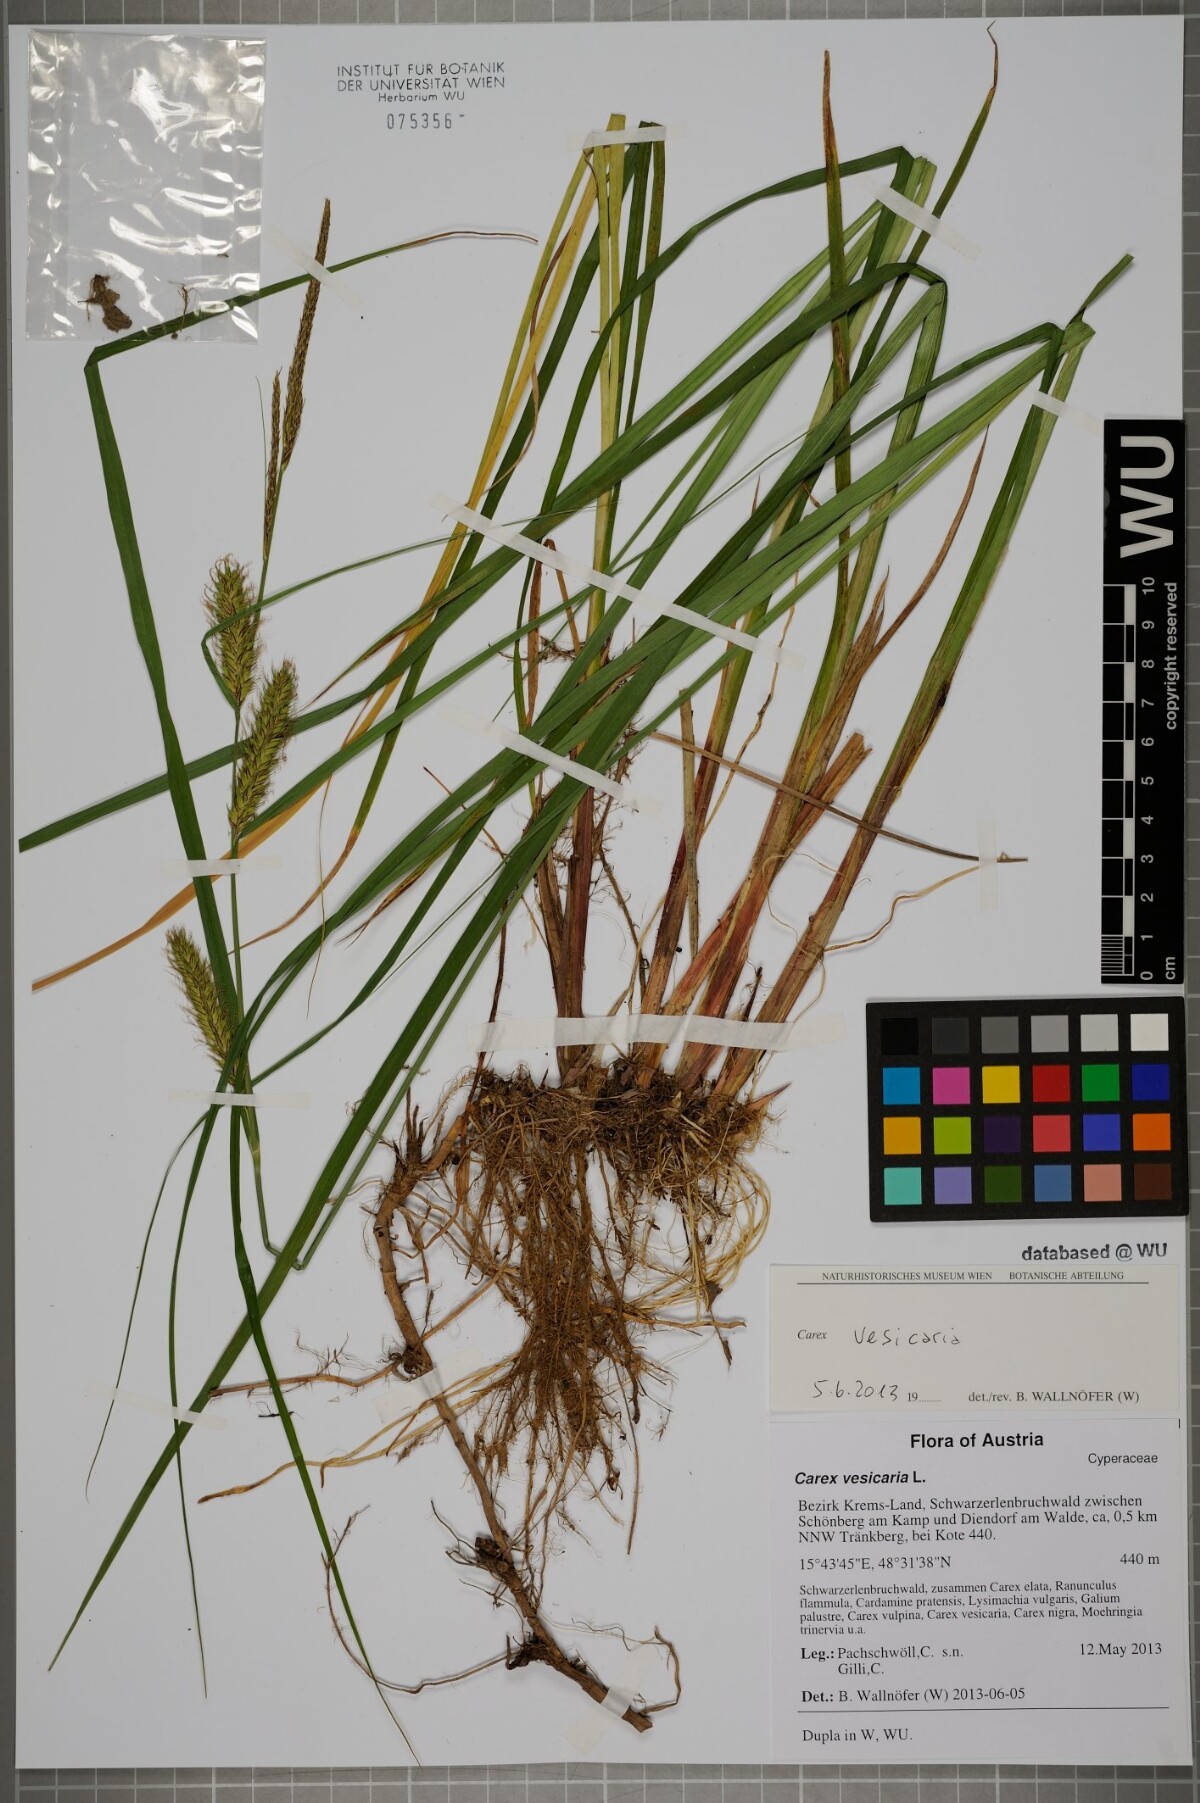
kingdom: Plantae
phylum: Tracheophyta
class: Liliopsida
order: Poales
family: Cyperaceae
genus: Carex
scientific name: Carex vesicaria
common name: Bladder-sedge
